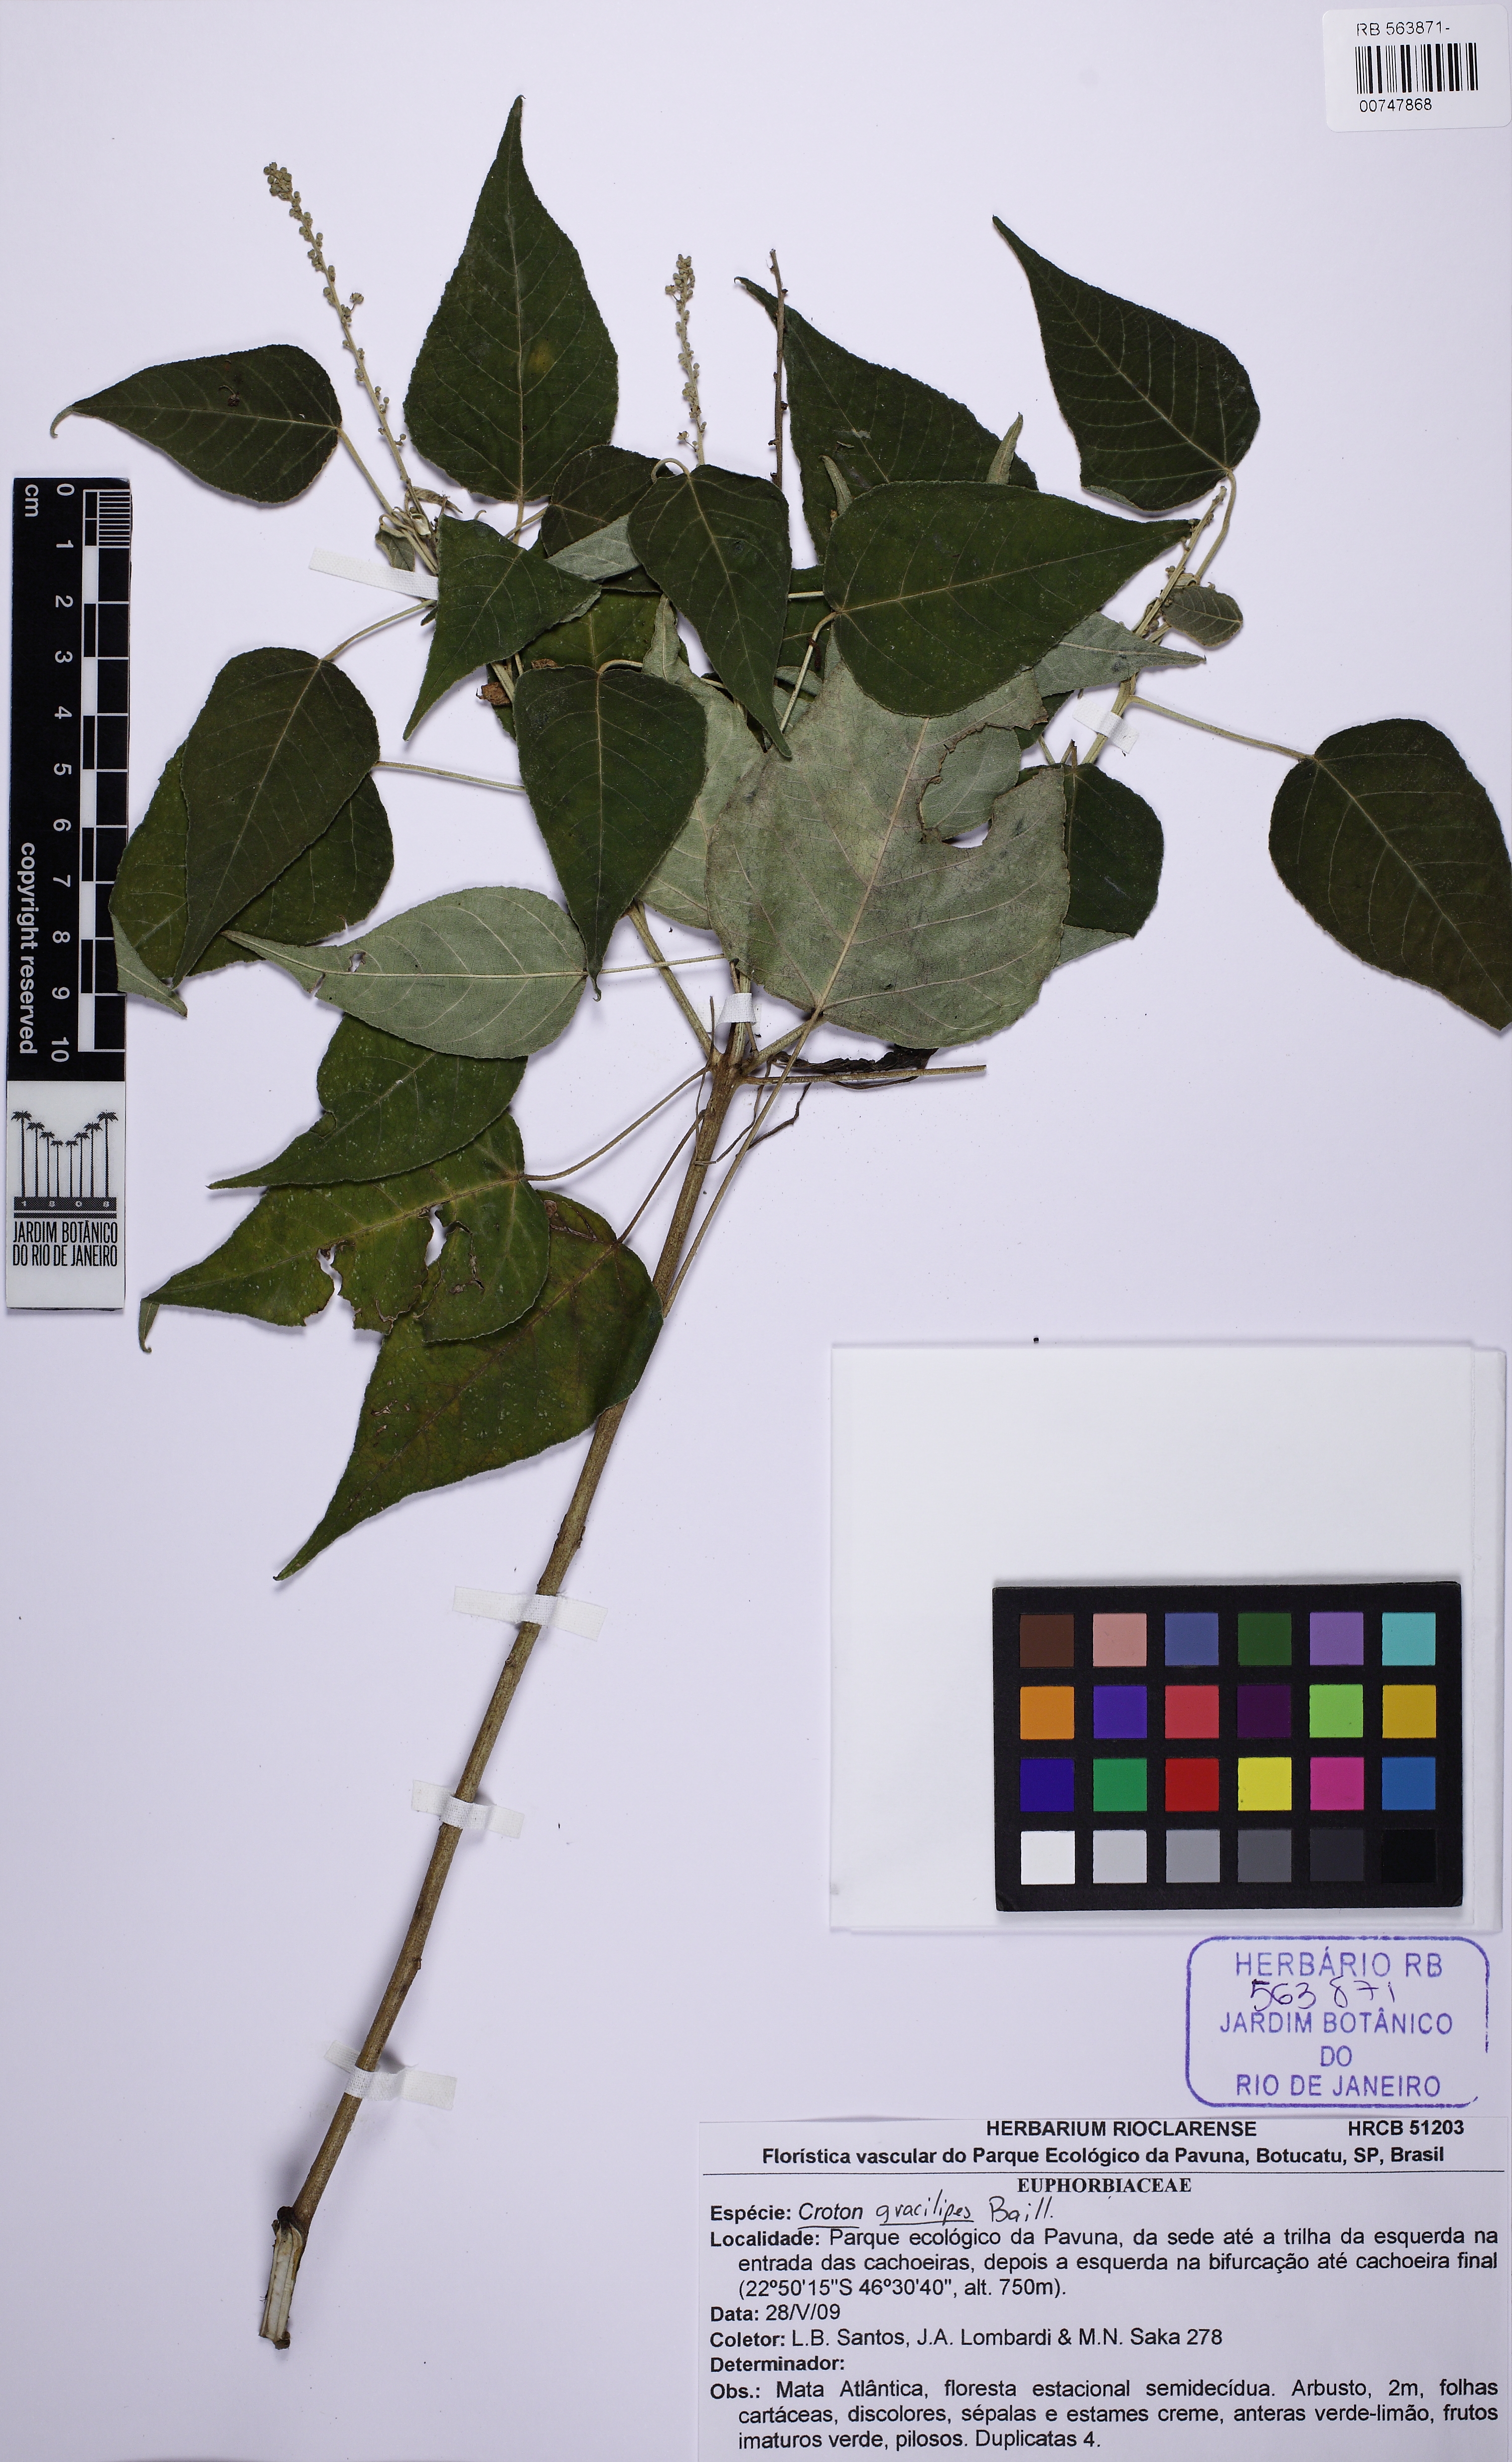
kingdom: Plantae
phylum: Tracheophyta
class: Magnoliopsida
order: Malpighiales
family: Euphorbiaceae
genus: Croton
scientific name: Croton gracilipes
